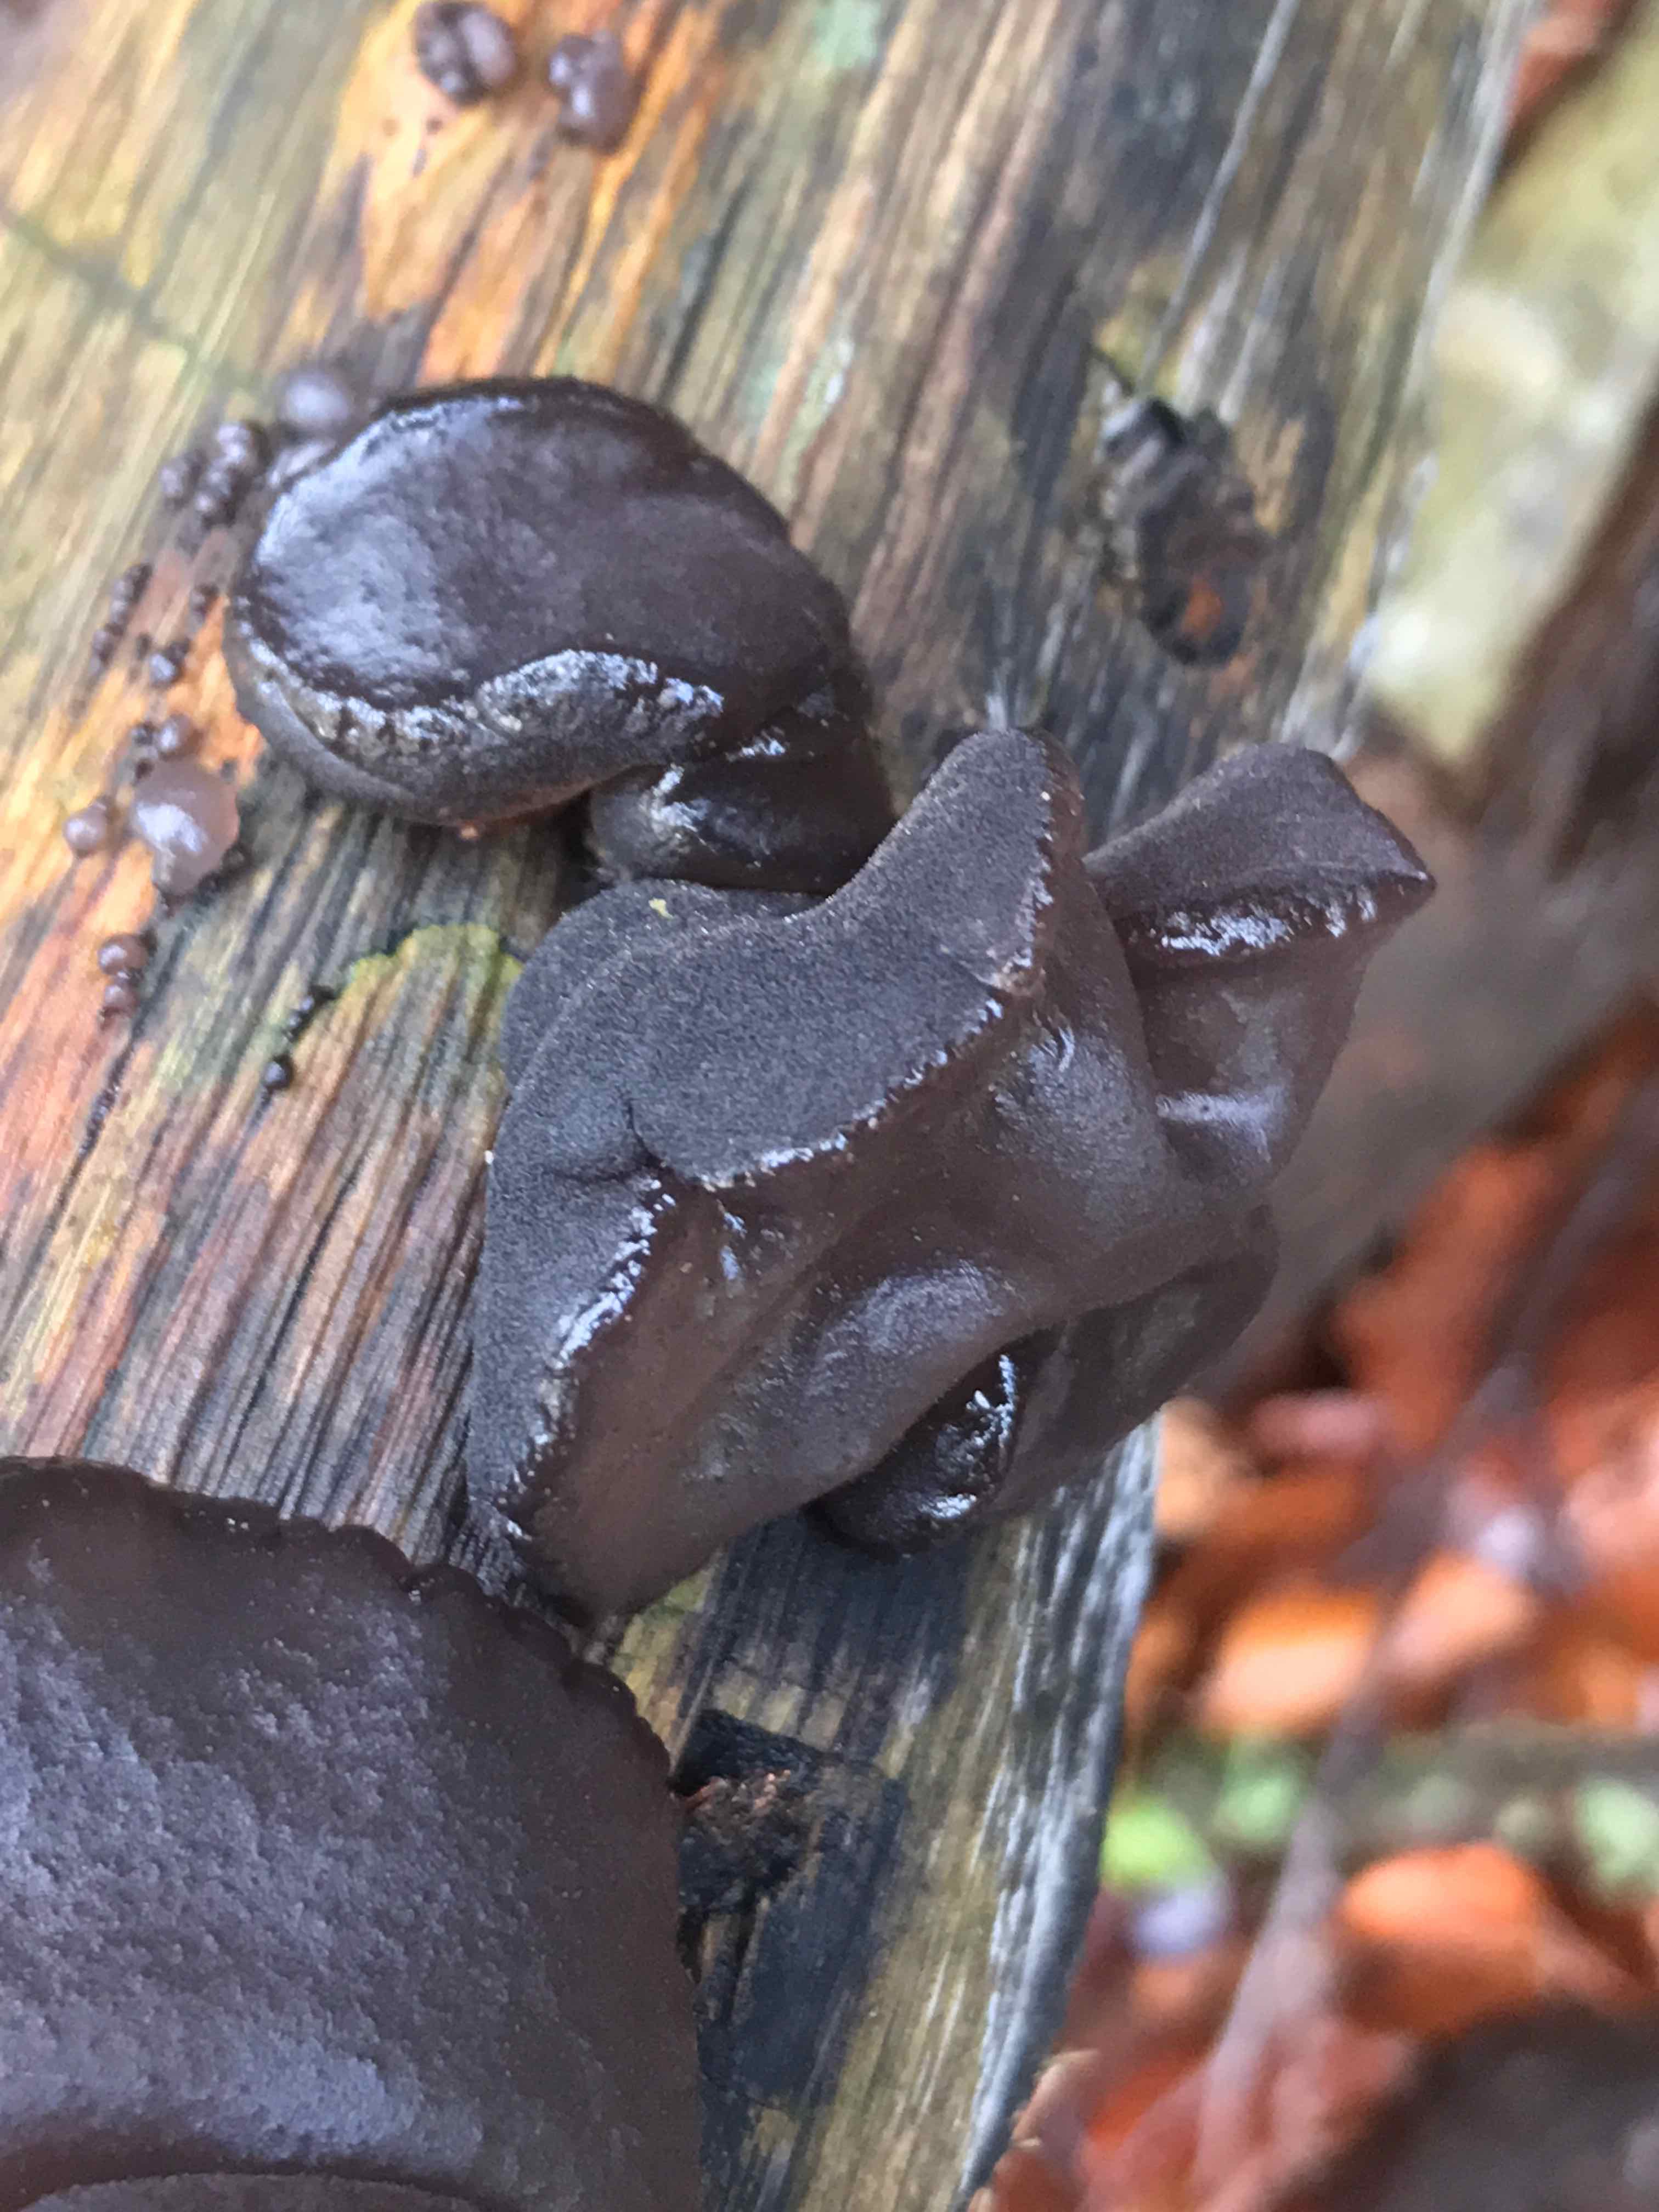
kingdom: Fungi
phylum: Basidiomycota
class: Agaricomycetes
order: Auriculariales
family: Auriculariaceae
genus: Exidia
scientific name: Exidia glandulosa
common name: ege-bævretop
